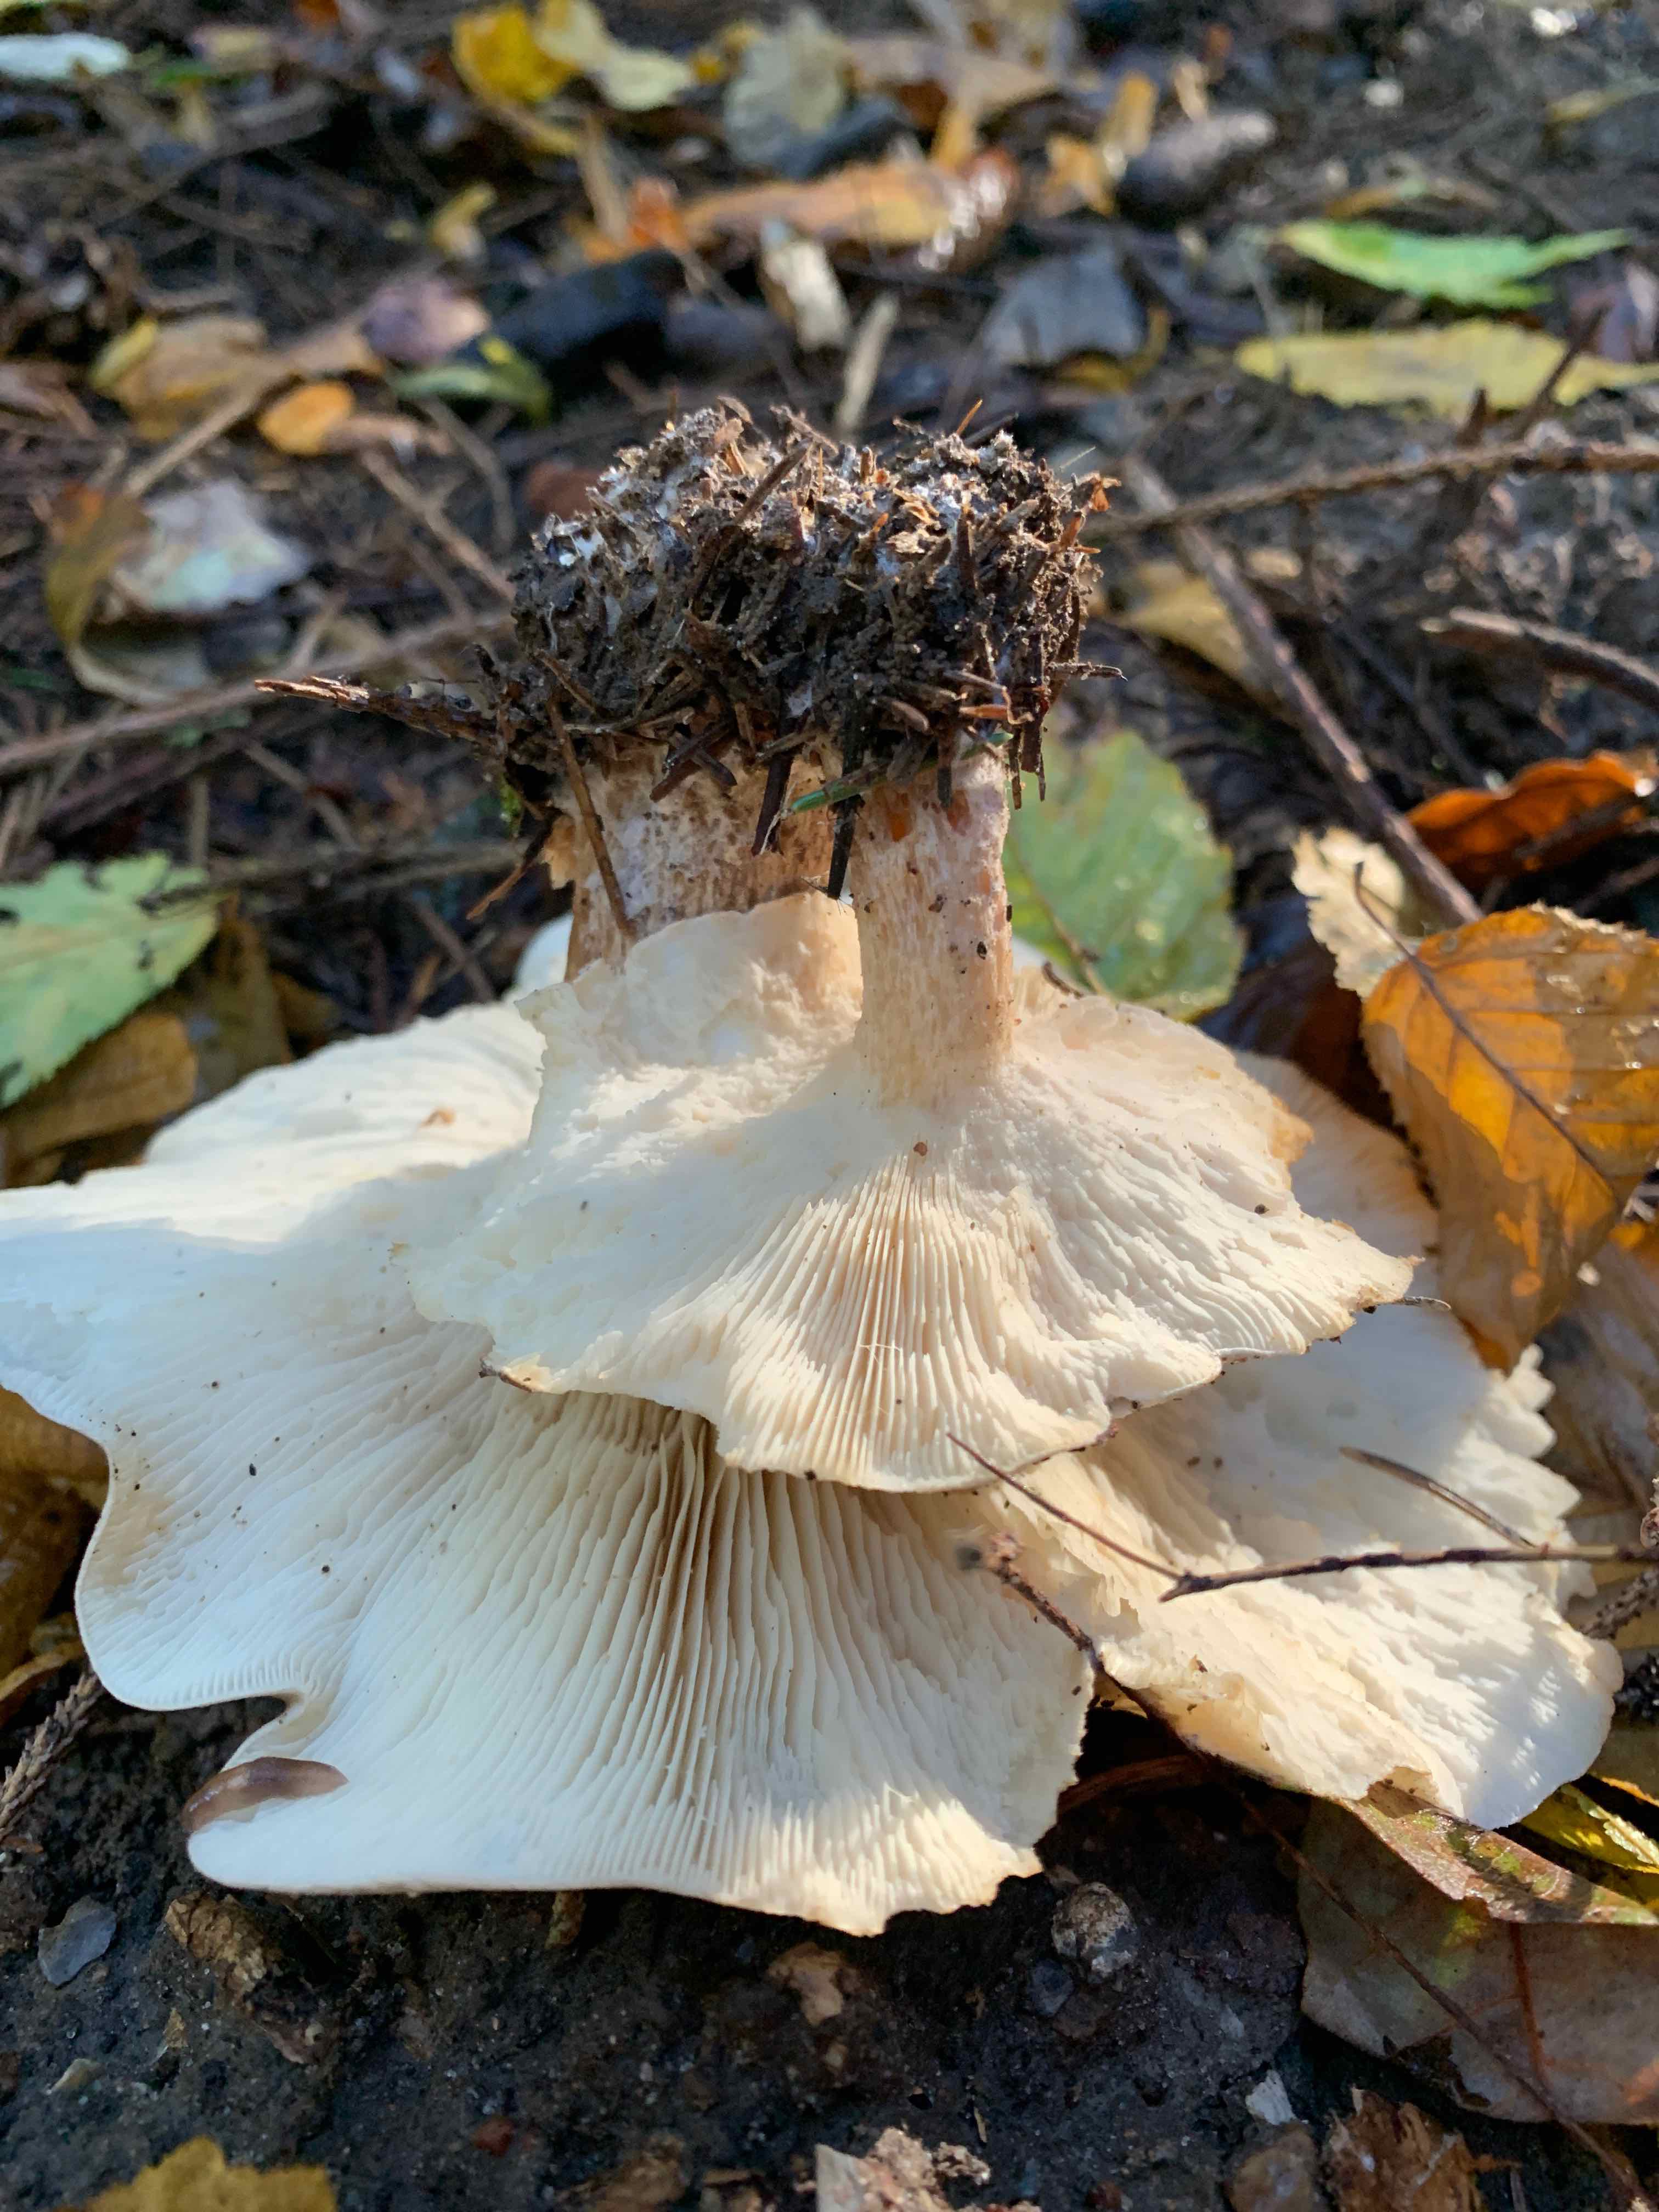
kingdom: Fungi
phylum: Basidiomycota
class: Agaricomycetes
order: Agaricales
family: Tricholomataceae
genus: Clitocybe
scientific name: Clitocybe nebularis
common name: tåge-tragthat
